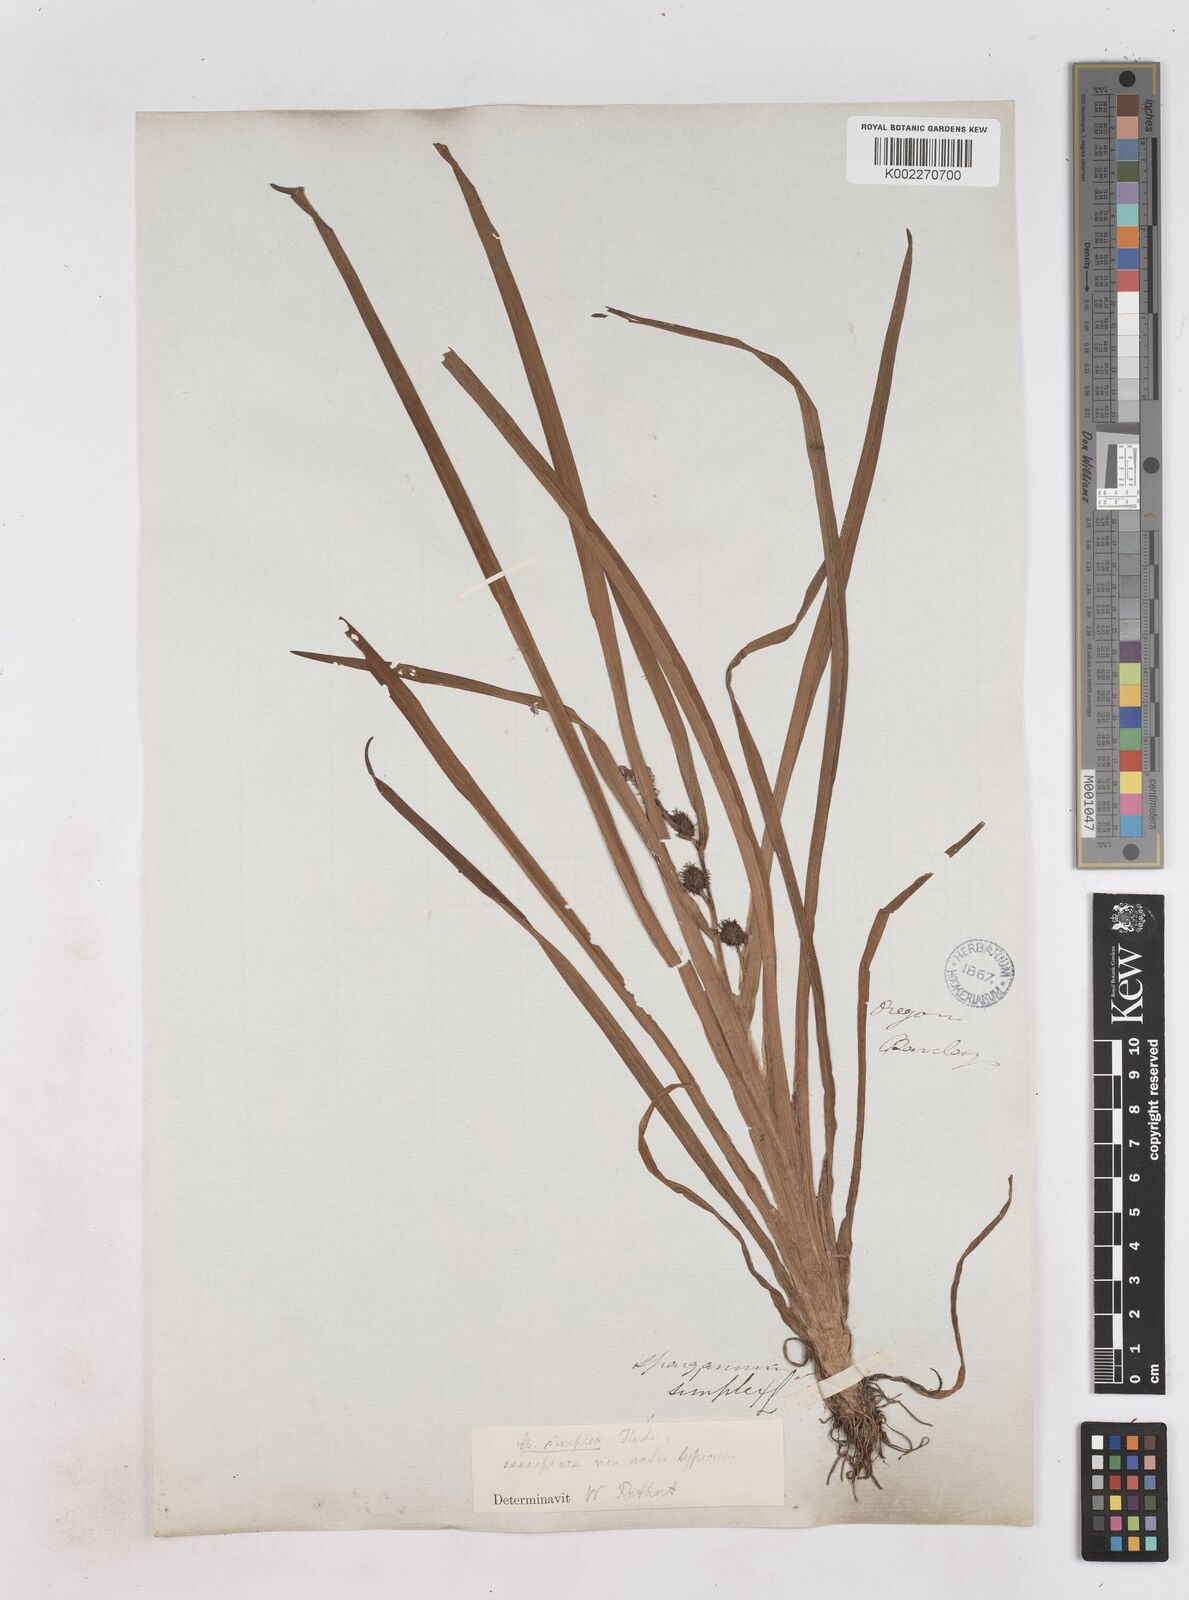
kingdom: Plantae
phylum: Tracheophyta
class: Liliopsida
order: Poales
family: Typhaceae
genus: Sparganium
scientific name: Sparganium emersum
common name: Unbranched bur-reed
